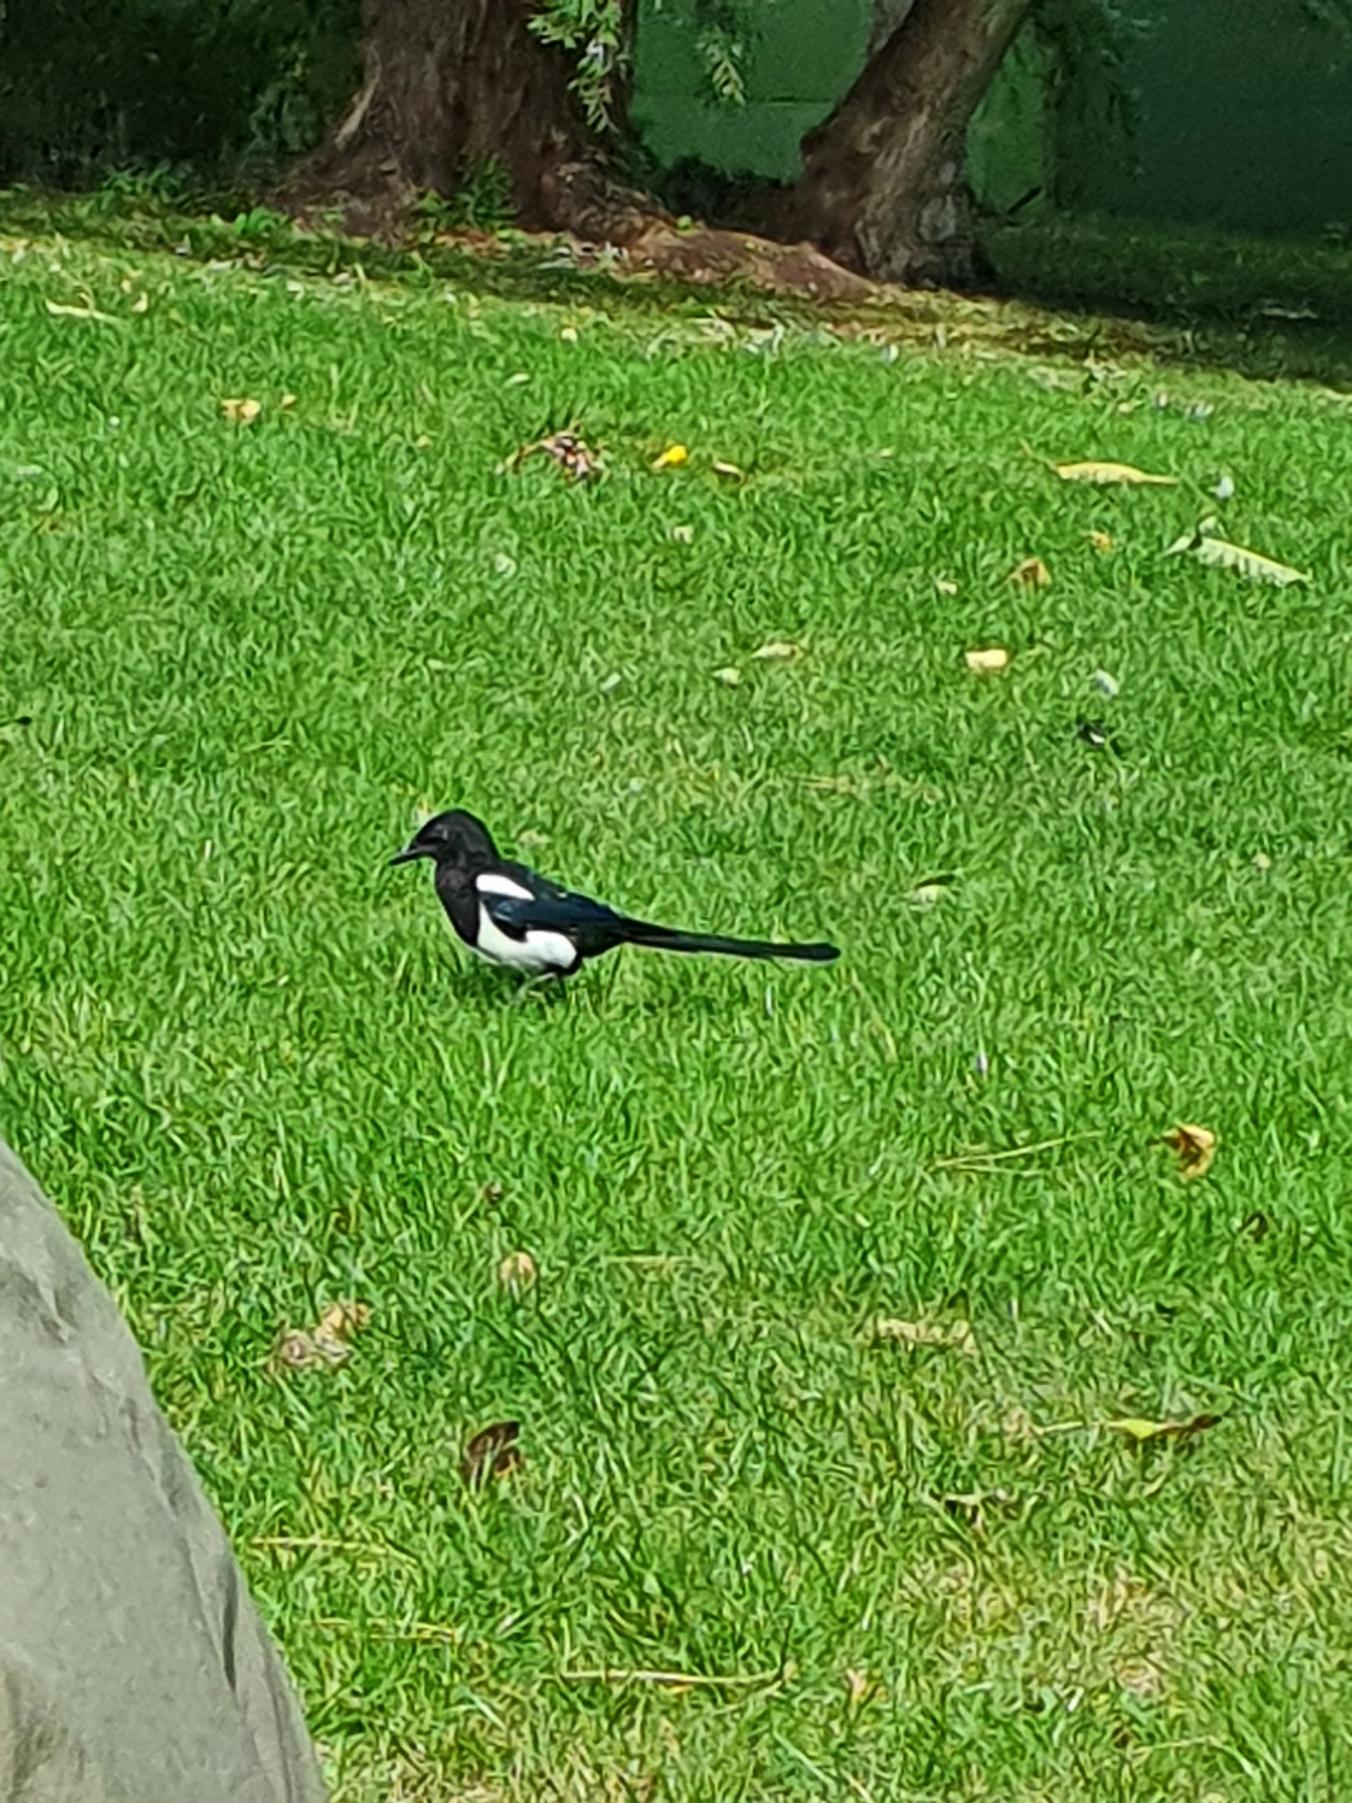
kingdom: Animalia
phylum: Chordata
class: Aves
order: Passeriformes
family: Corvidae
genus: Pica
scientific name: Pica pica
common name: Husskade
